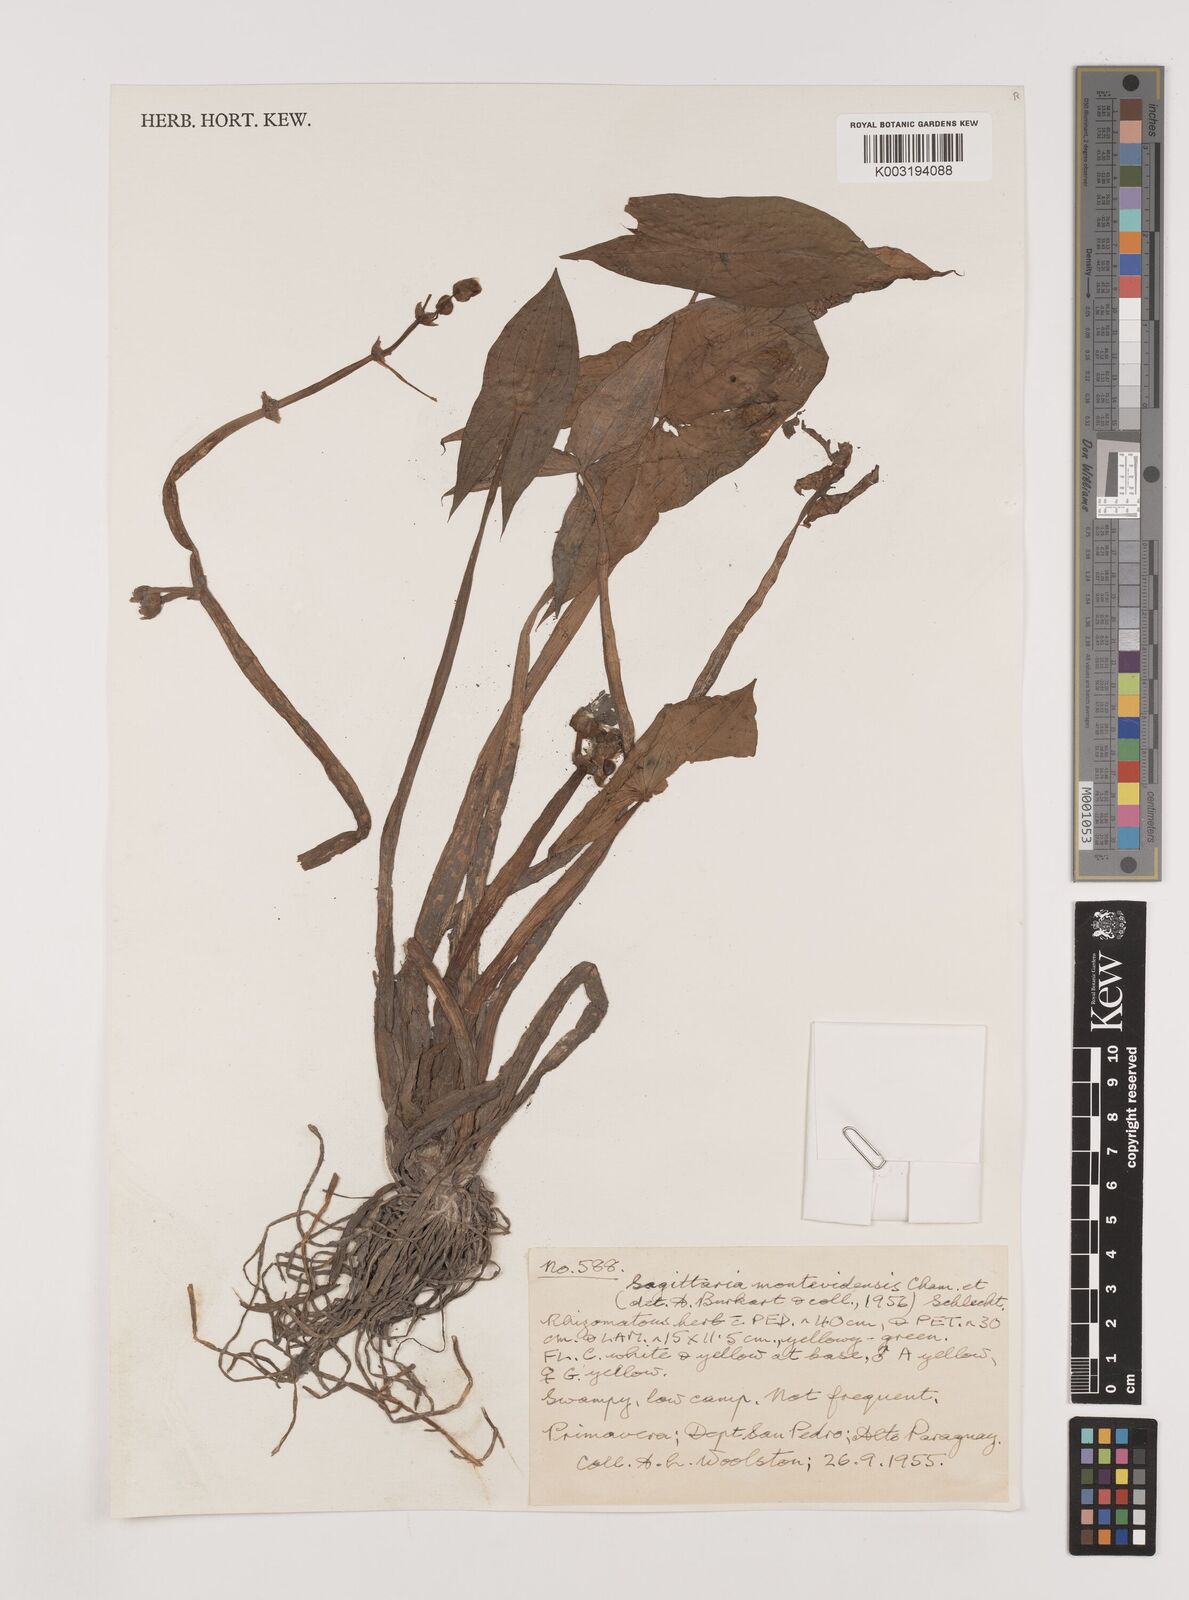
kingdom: Plantae
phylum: Tracheophyta
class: Liliopsida
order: Alismatales
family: Alismataceae
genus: Sagittaria
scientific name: Sagittaria montevidensis
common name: Giant arrowhead
